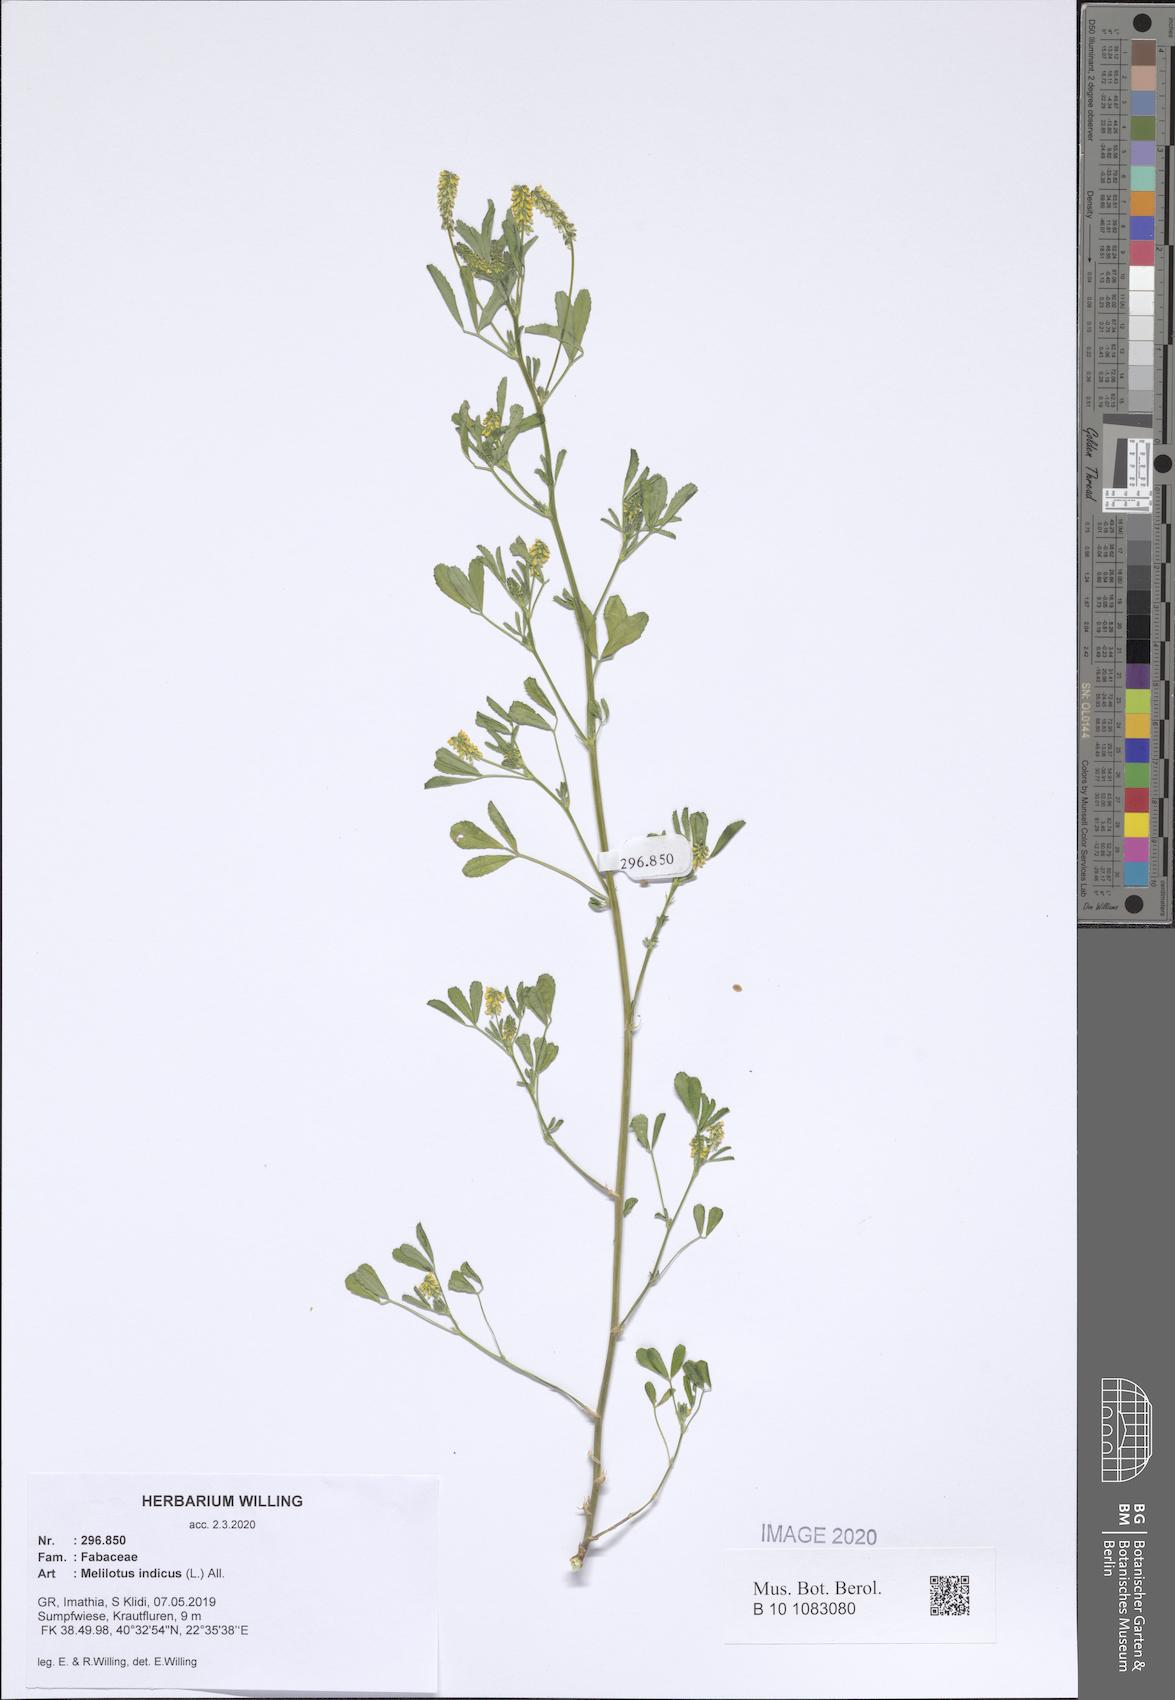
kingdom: Plantae
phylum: Tracheophyta
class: Magnoliopsida
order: Fabales
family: Fabaceae
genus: Melilotus
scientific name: Melilotus indicus
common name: Small melilot
